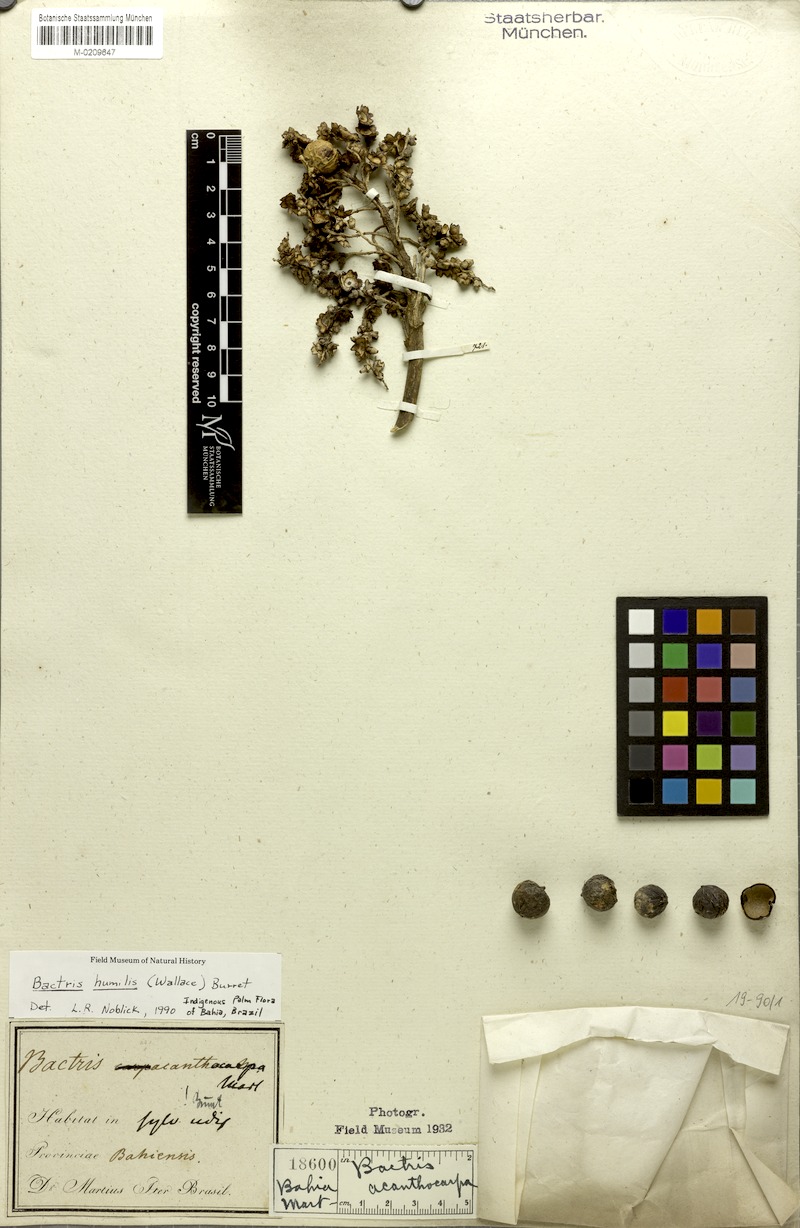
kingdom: Plantae
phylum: Tracheophyta
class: Liliopsida
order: Arecales
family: Arecaceae
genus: Bactris
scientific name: Bactris acanthocarpa
